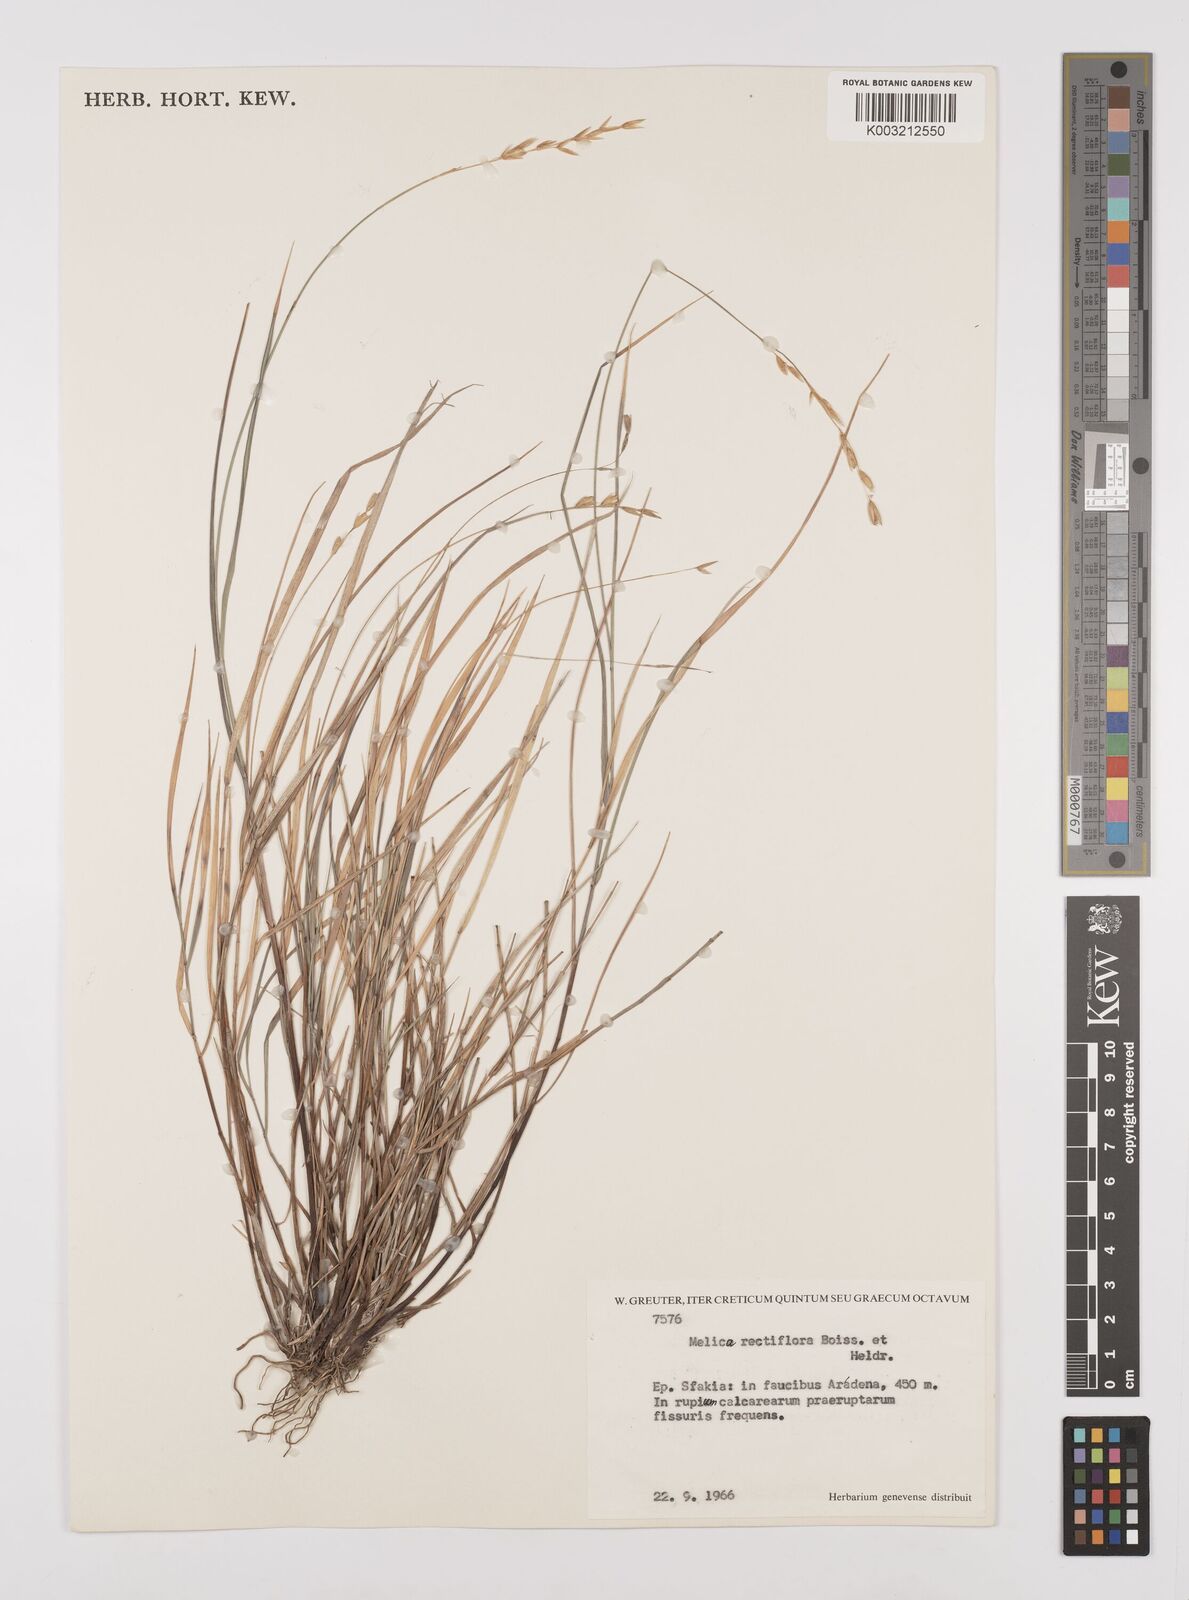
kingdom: Plantae
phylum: Tracheophyta
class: Liliopsida
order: Poales
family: Poaceae
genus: Melica
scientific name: Melica rectiflora
